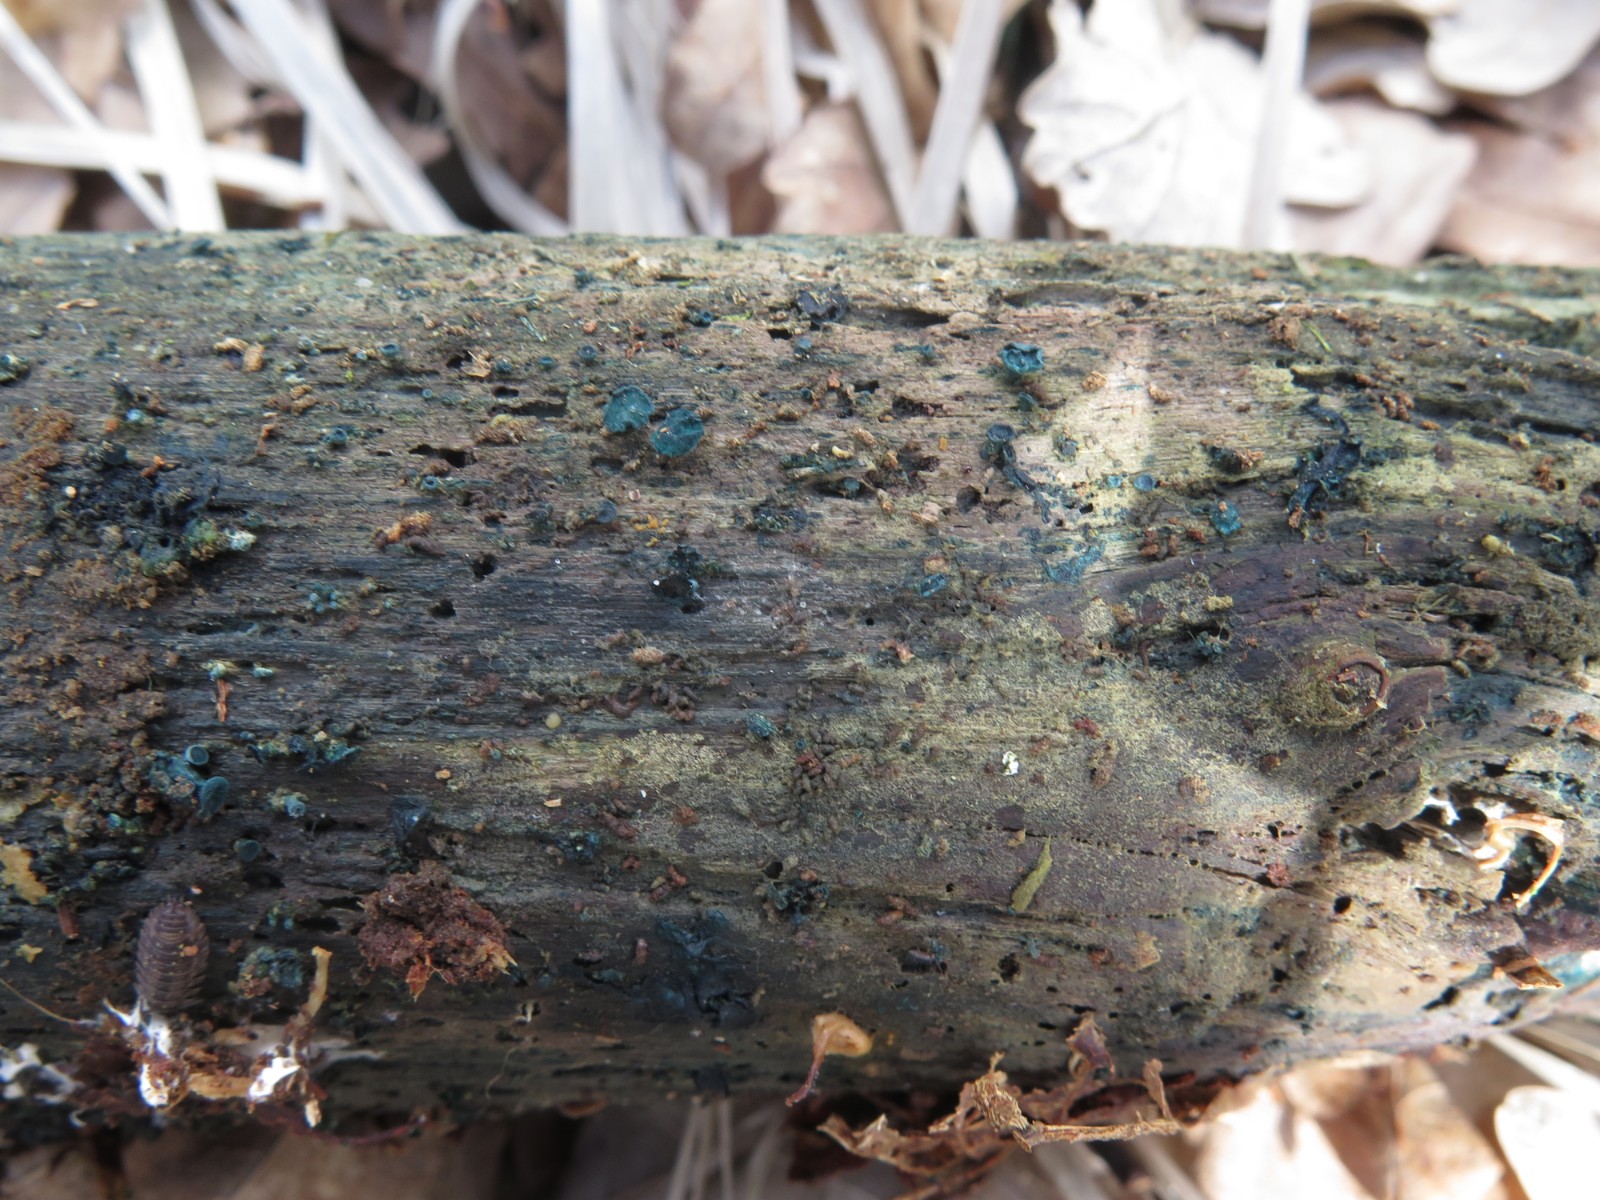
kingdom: Fungi
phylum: Ascomycota
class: Leotiomycetes
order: Helotiales
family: Chlorociboriaceae
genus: Chlorociboria
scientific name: Chlorociboria aeruginascens
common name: almindelig grønskive
